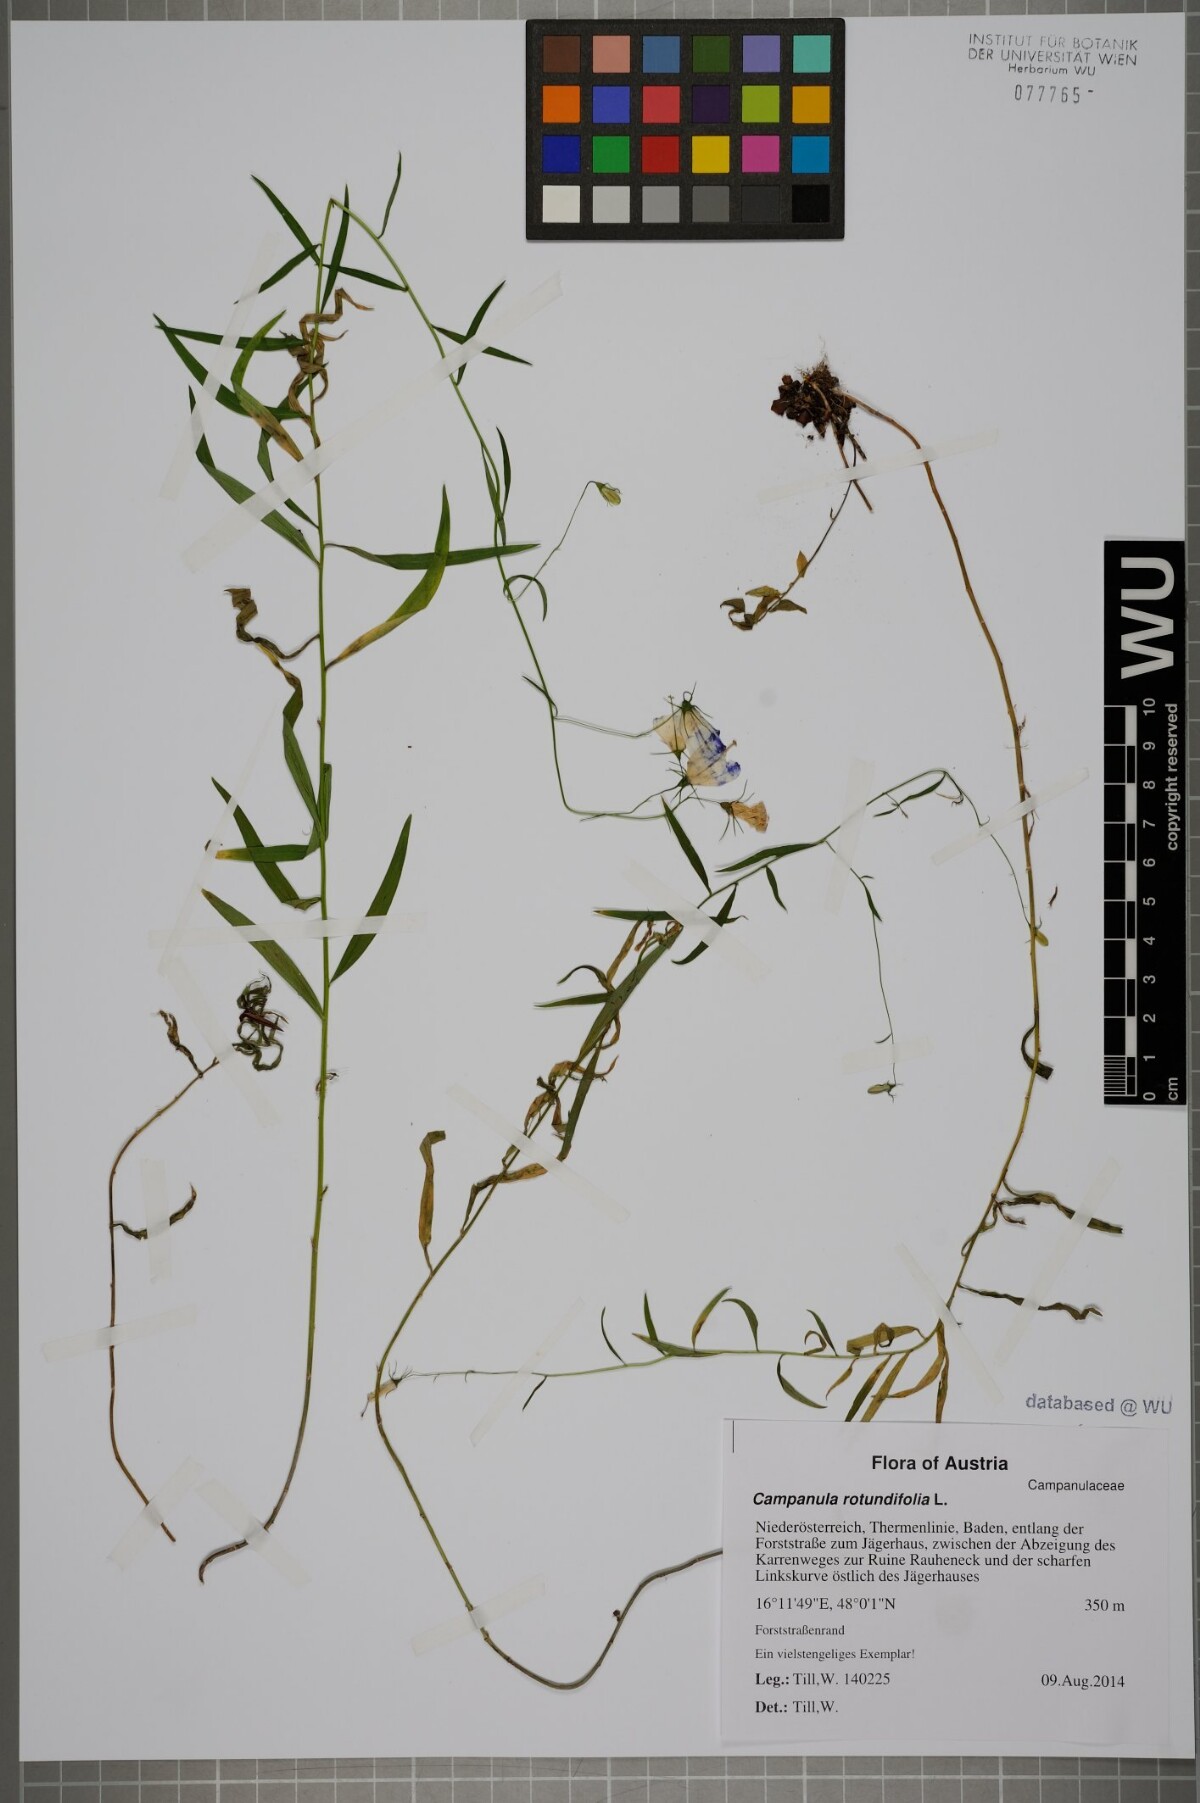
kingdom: Plantae
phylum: Tracheophyta
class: Magnoliopsida
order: Asterales
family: Campanulaceae
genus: Campanula
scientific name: Campanula rotundifolia
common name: Harebell
